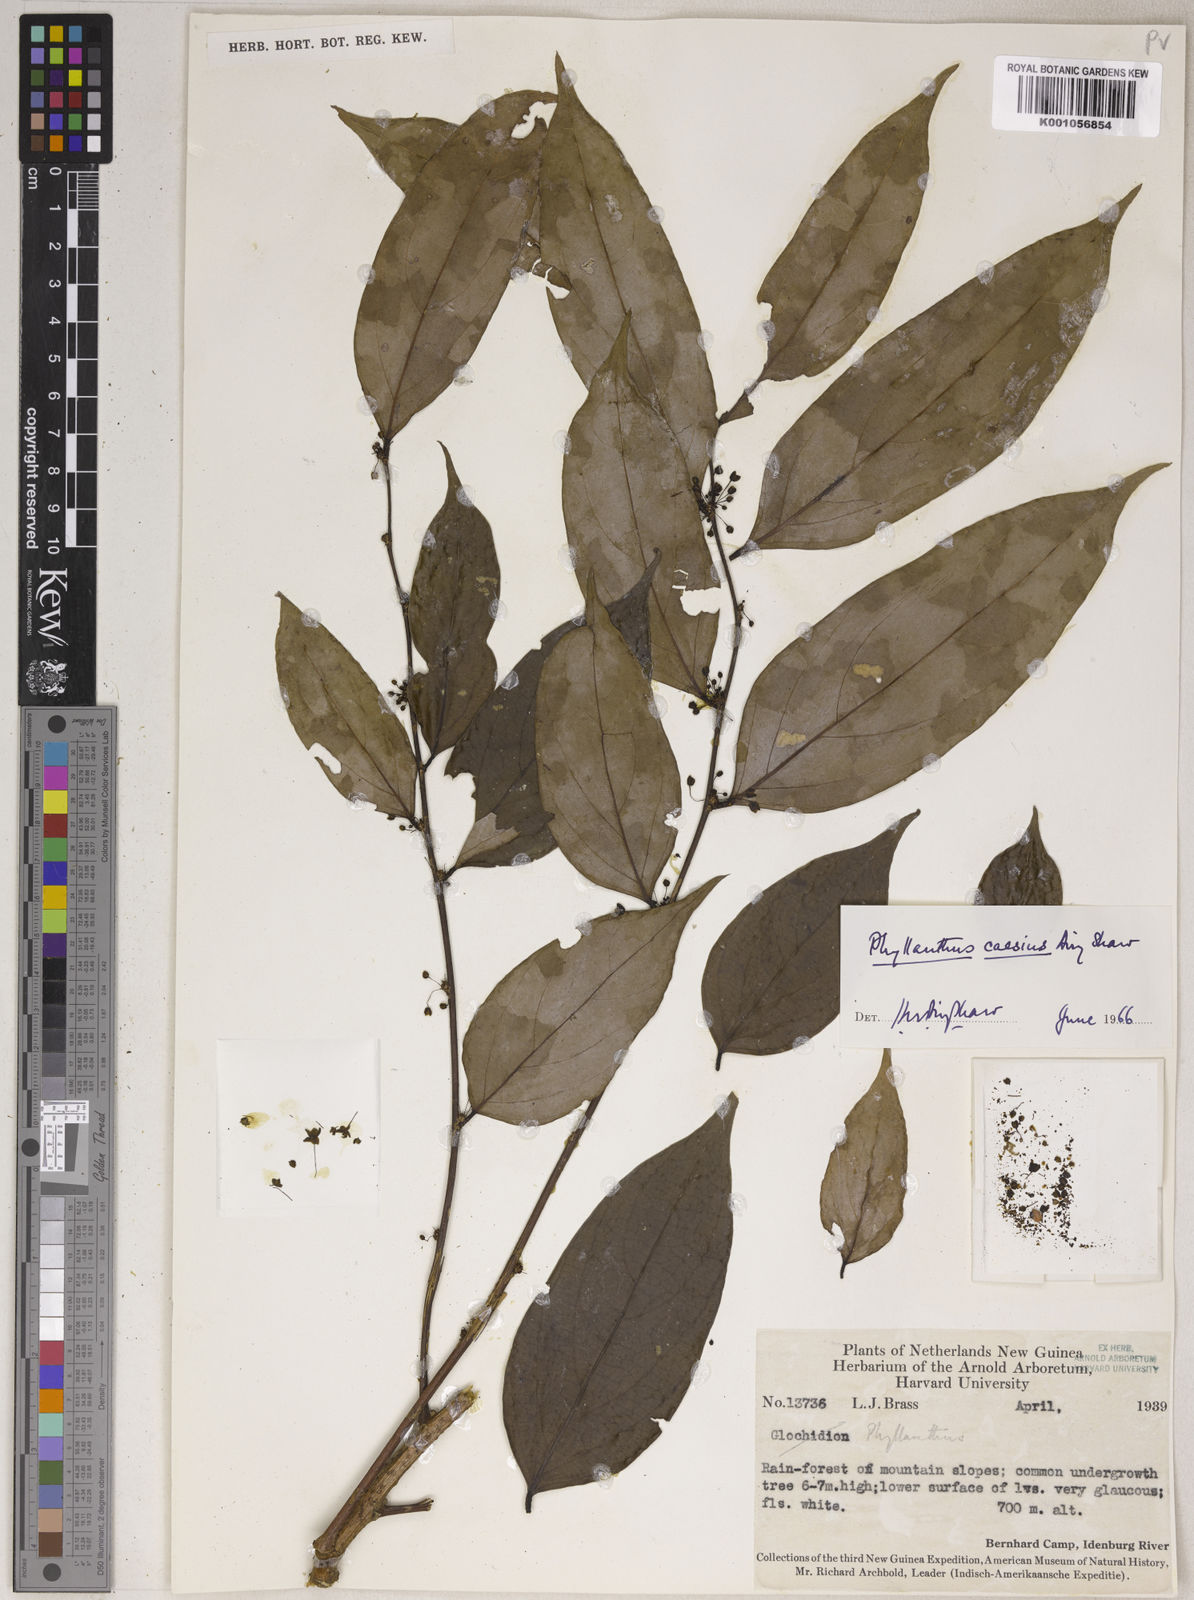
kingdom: Plantae
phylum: Tracheophyta
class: Magnoliopsida
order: Malpighiales
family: Phyllanthaceae
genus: Phyllanthus
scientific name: Phyllanthus caesius
